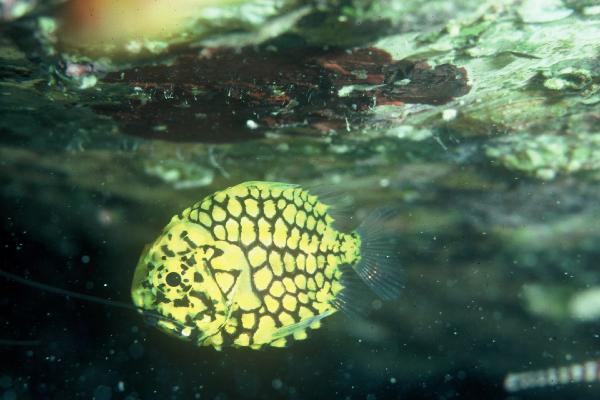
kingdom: Animalia
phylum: Chordata
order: Beryciformes
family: Monocentridae
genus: Monocentris
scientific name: Monocentris japonica
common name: Pineconefish
